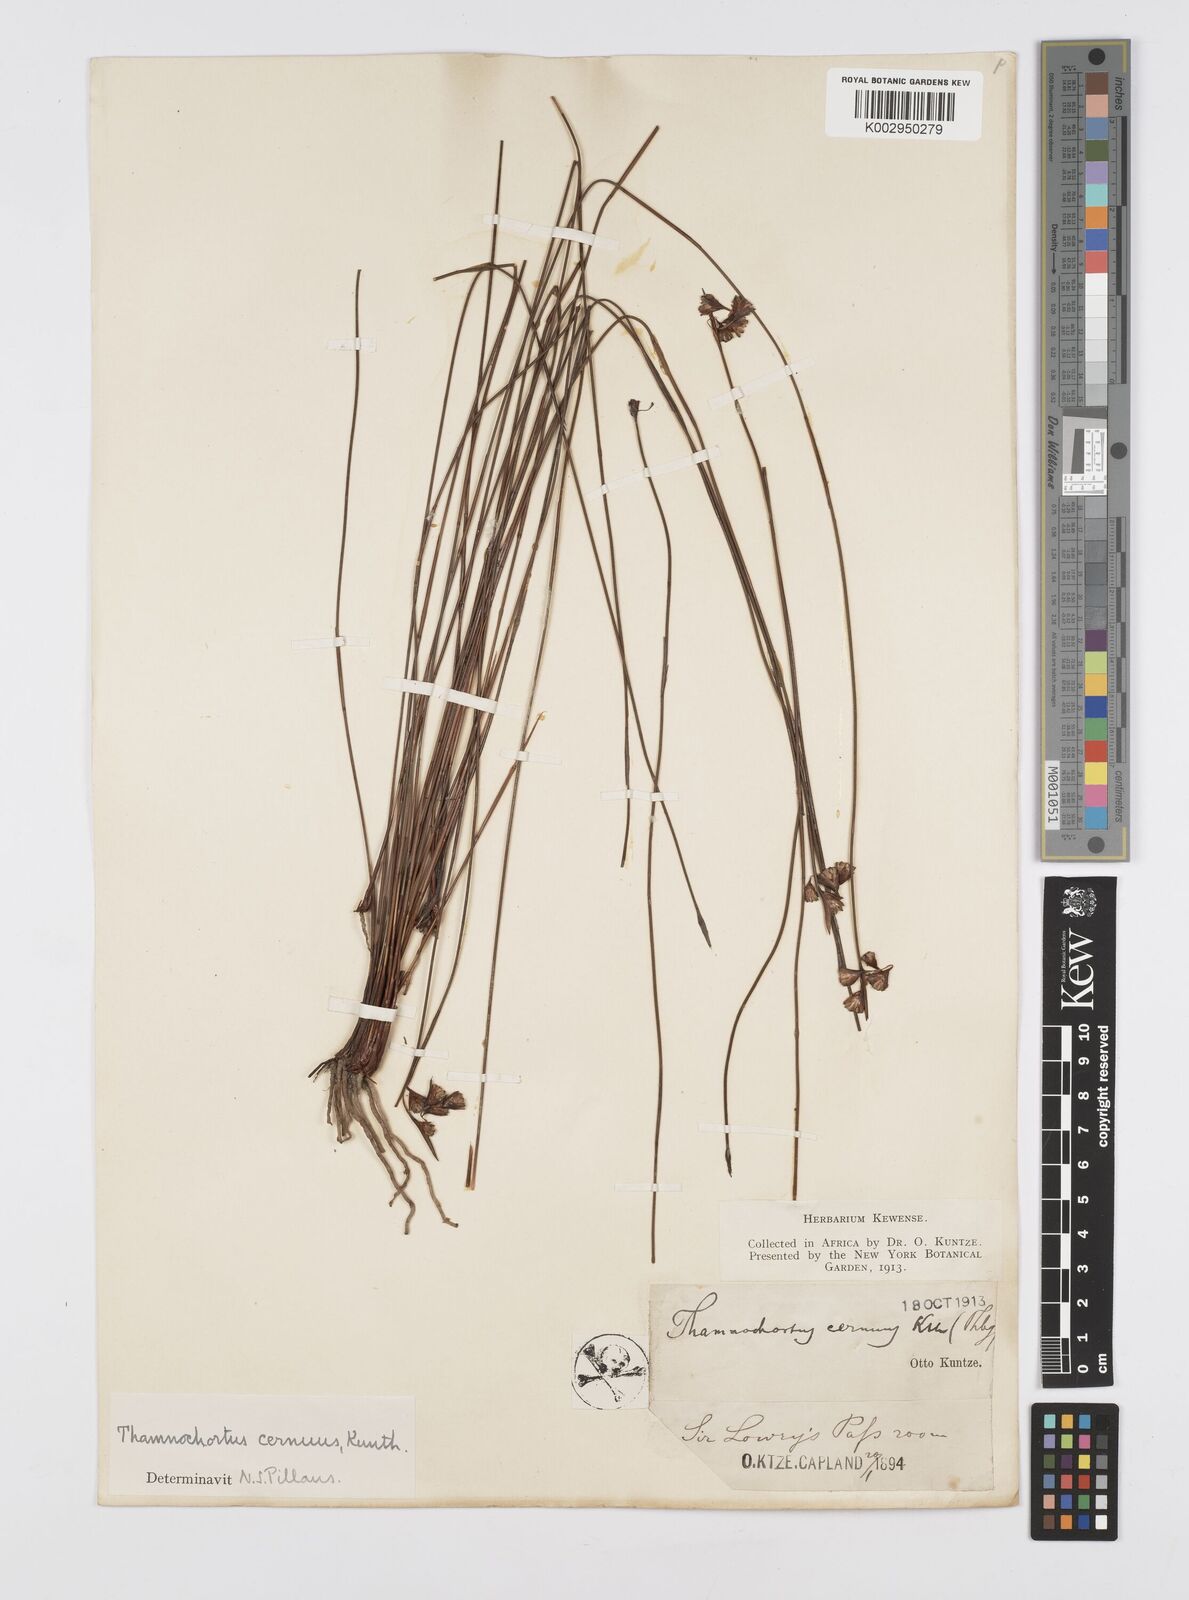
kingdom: Plantae
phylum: Tracheophyta
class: Liliopsida
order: Poales
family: Restionaceae
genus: Staberoha
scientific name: Staberoha cernua
